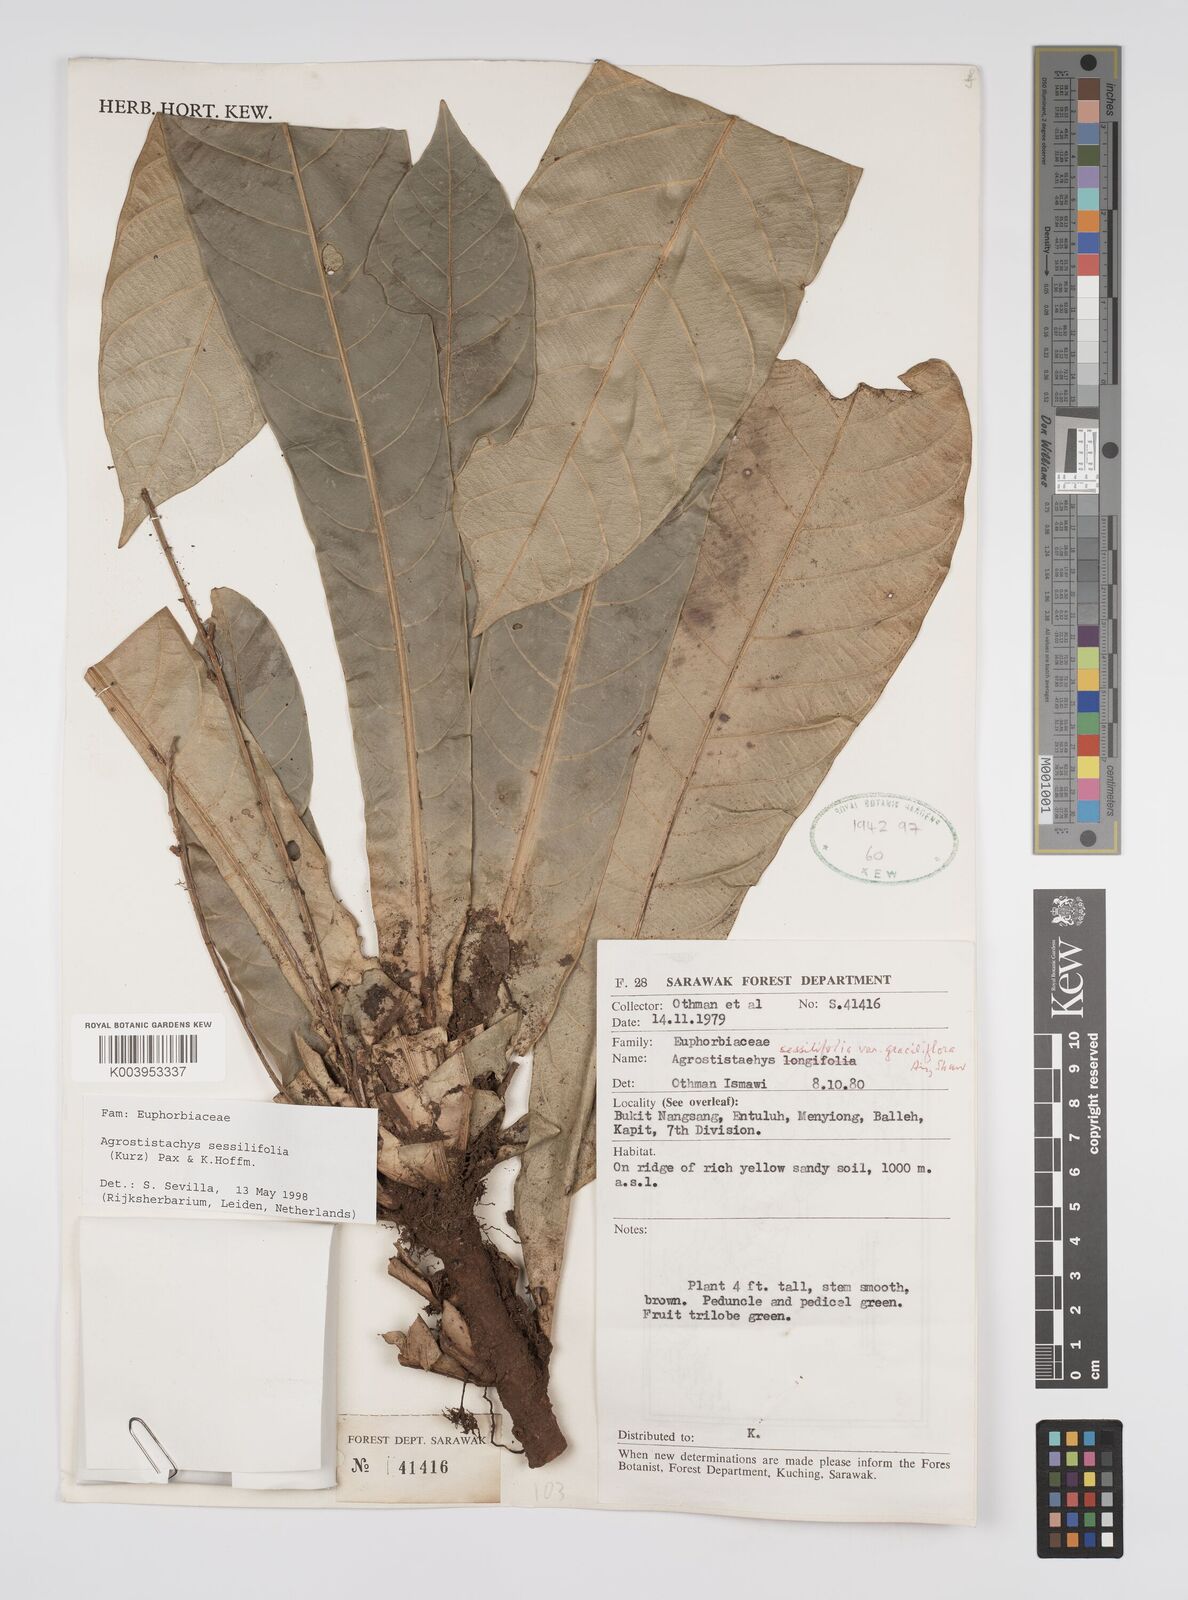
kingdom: Plantae
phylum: Tracheophyta
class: Magnoliopsida
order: Malpighiales
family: Euphorbiaceae
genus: Agrostistachys
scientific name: Agrostistachys sessilifolia
